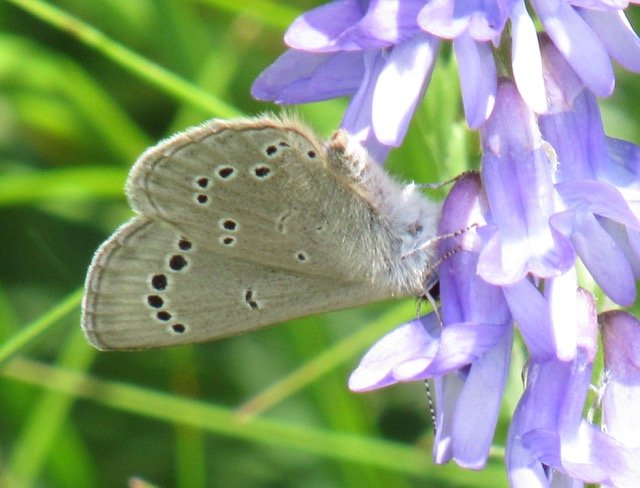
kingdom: Animalia
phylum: Arthropoda
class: Insecta
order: Lepidoptera
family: Lycaenidae
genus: Glaucopsyche
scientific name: Glaucopsyche lygdamus
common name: Silvery Blue
